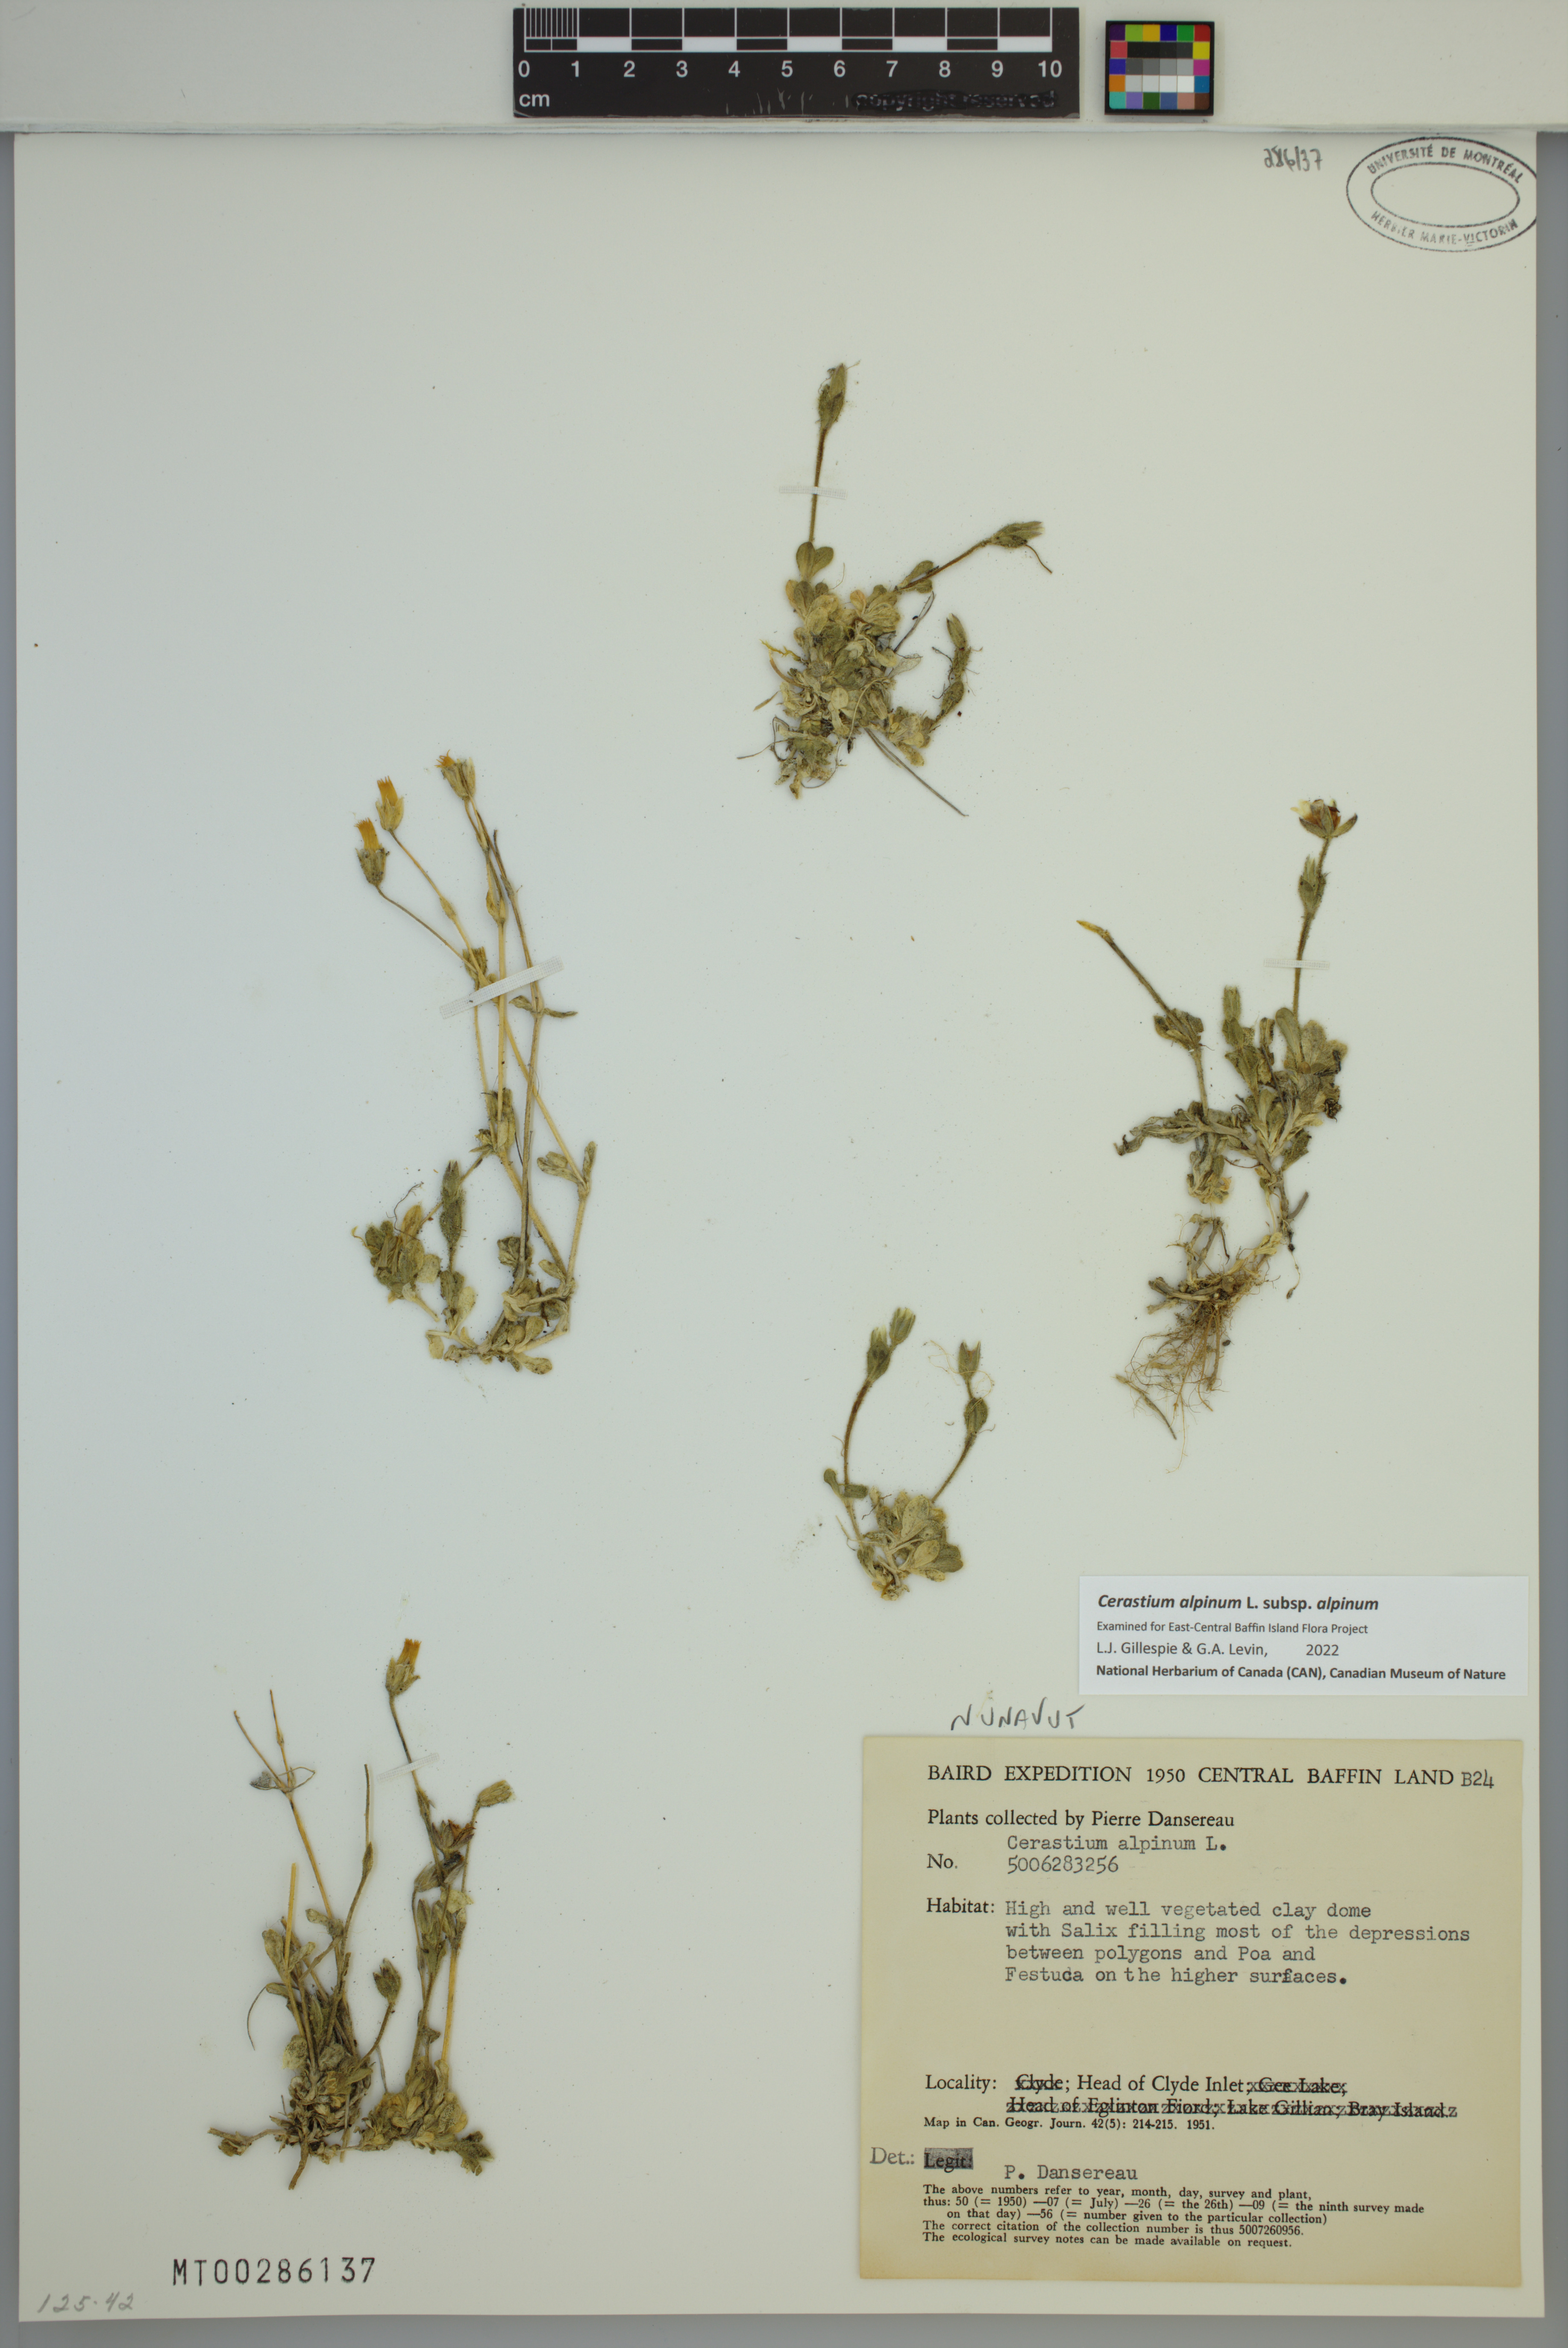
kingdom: Plantae
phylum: Tracheophyta
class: Magnoliopsida
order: Caryophyllales
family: Caryophyllaceae
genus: Cerastium
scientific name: Cerastium alpinum
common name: Alpine mouse-ear
